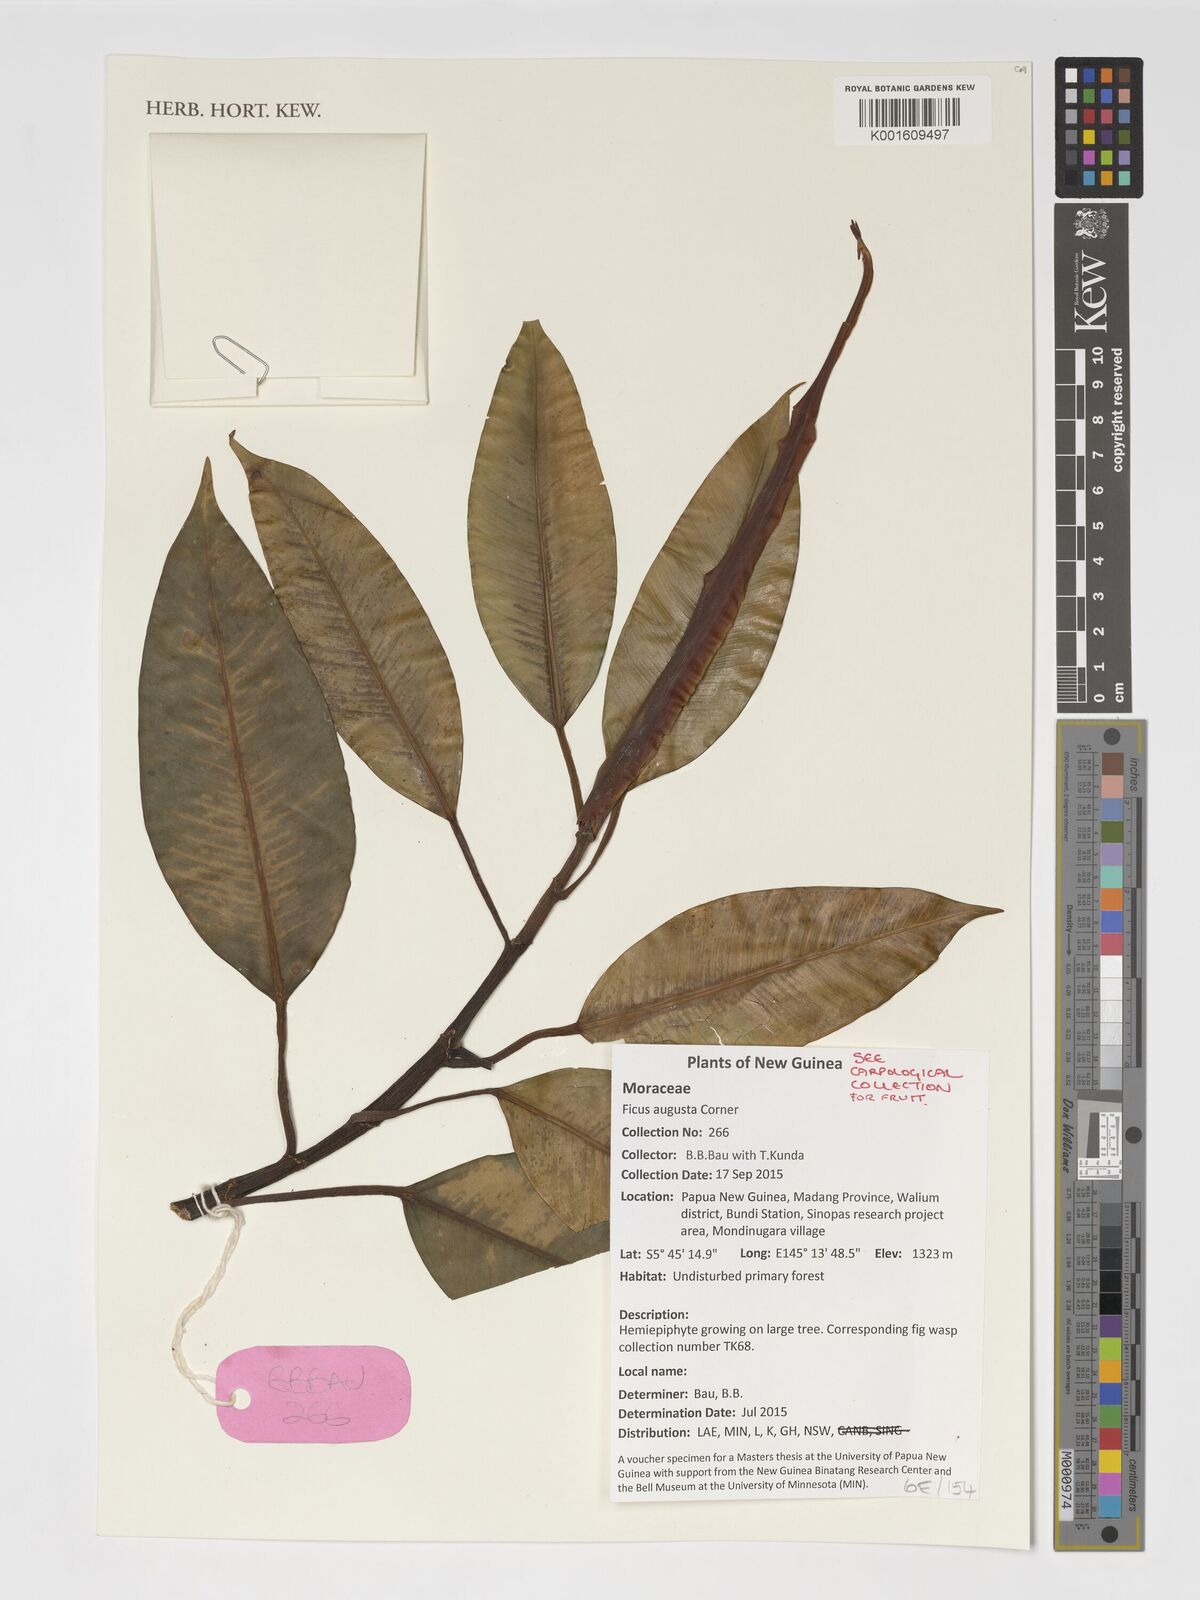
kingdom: Plantae
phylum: Tracheophyta
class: Magnoliopsida
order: Rosales
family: Moraceae
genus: Ficus
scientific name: Ficus hesperidiiformis
